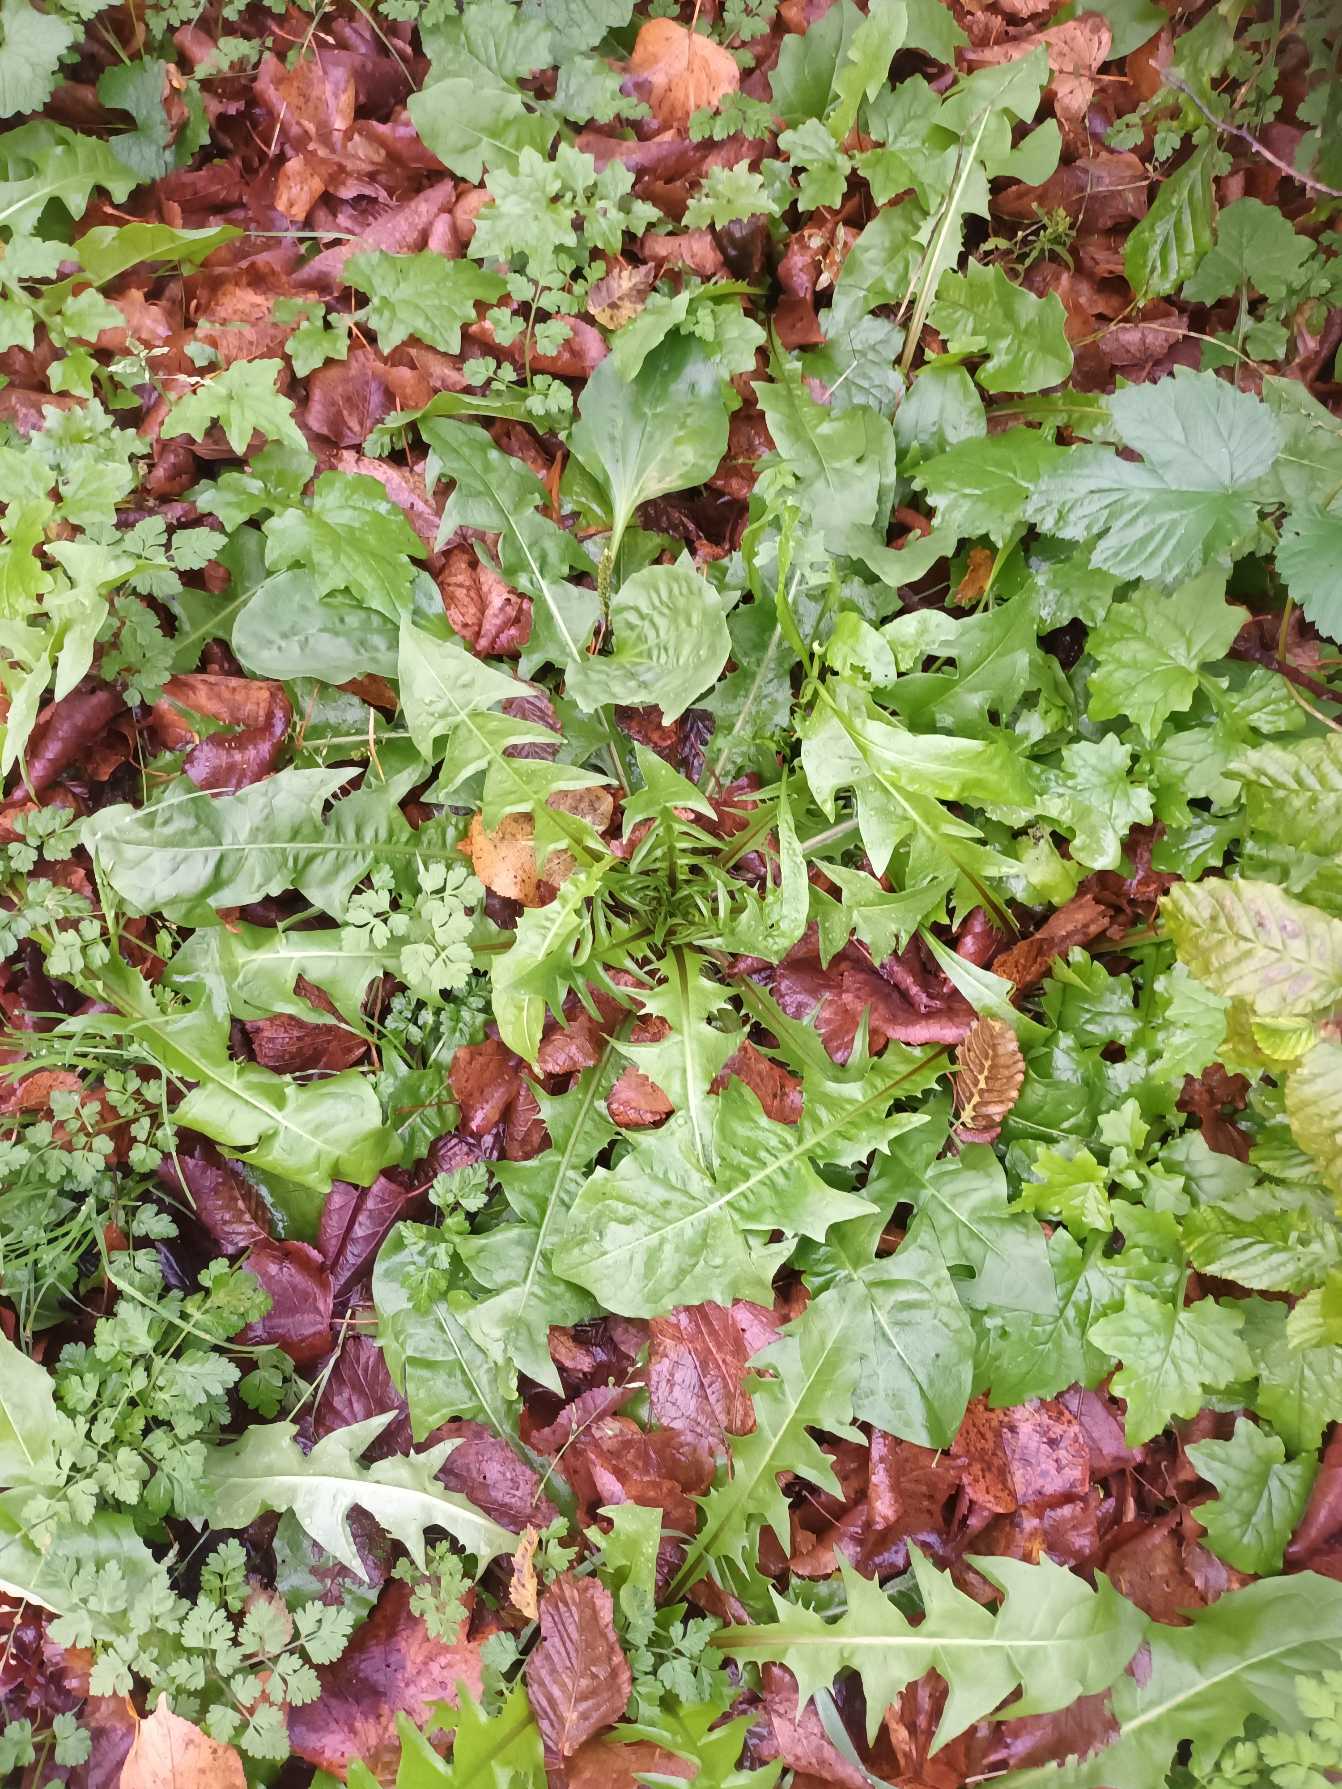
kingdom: Plantae
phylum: Tracheophyta
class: Magnoliopsida
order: Asterales
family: Asteraceae
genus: Taraxacum
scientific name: Taraxacum
